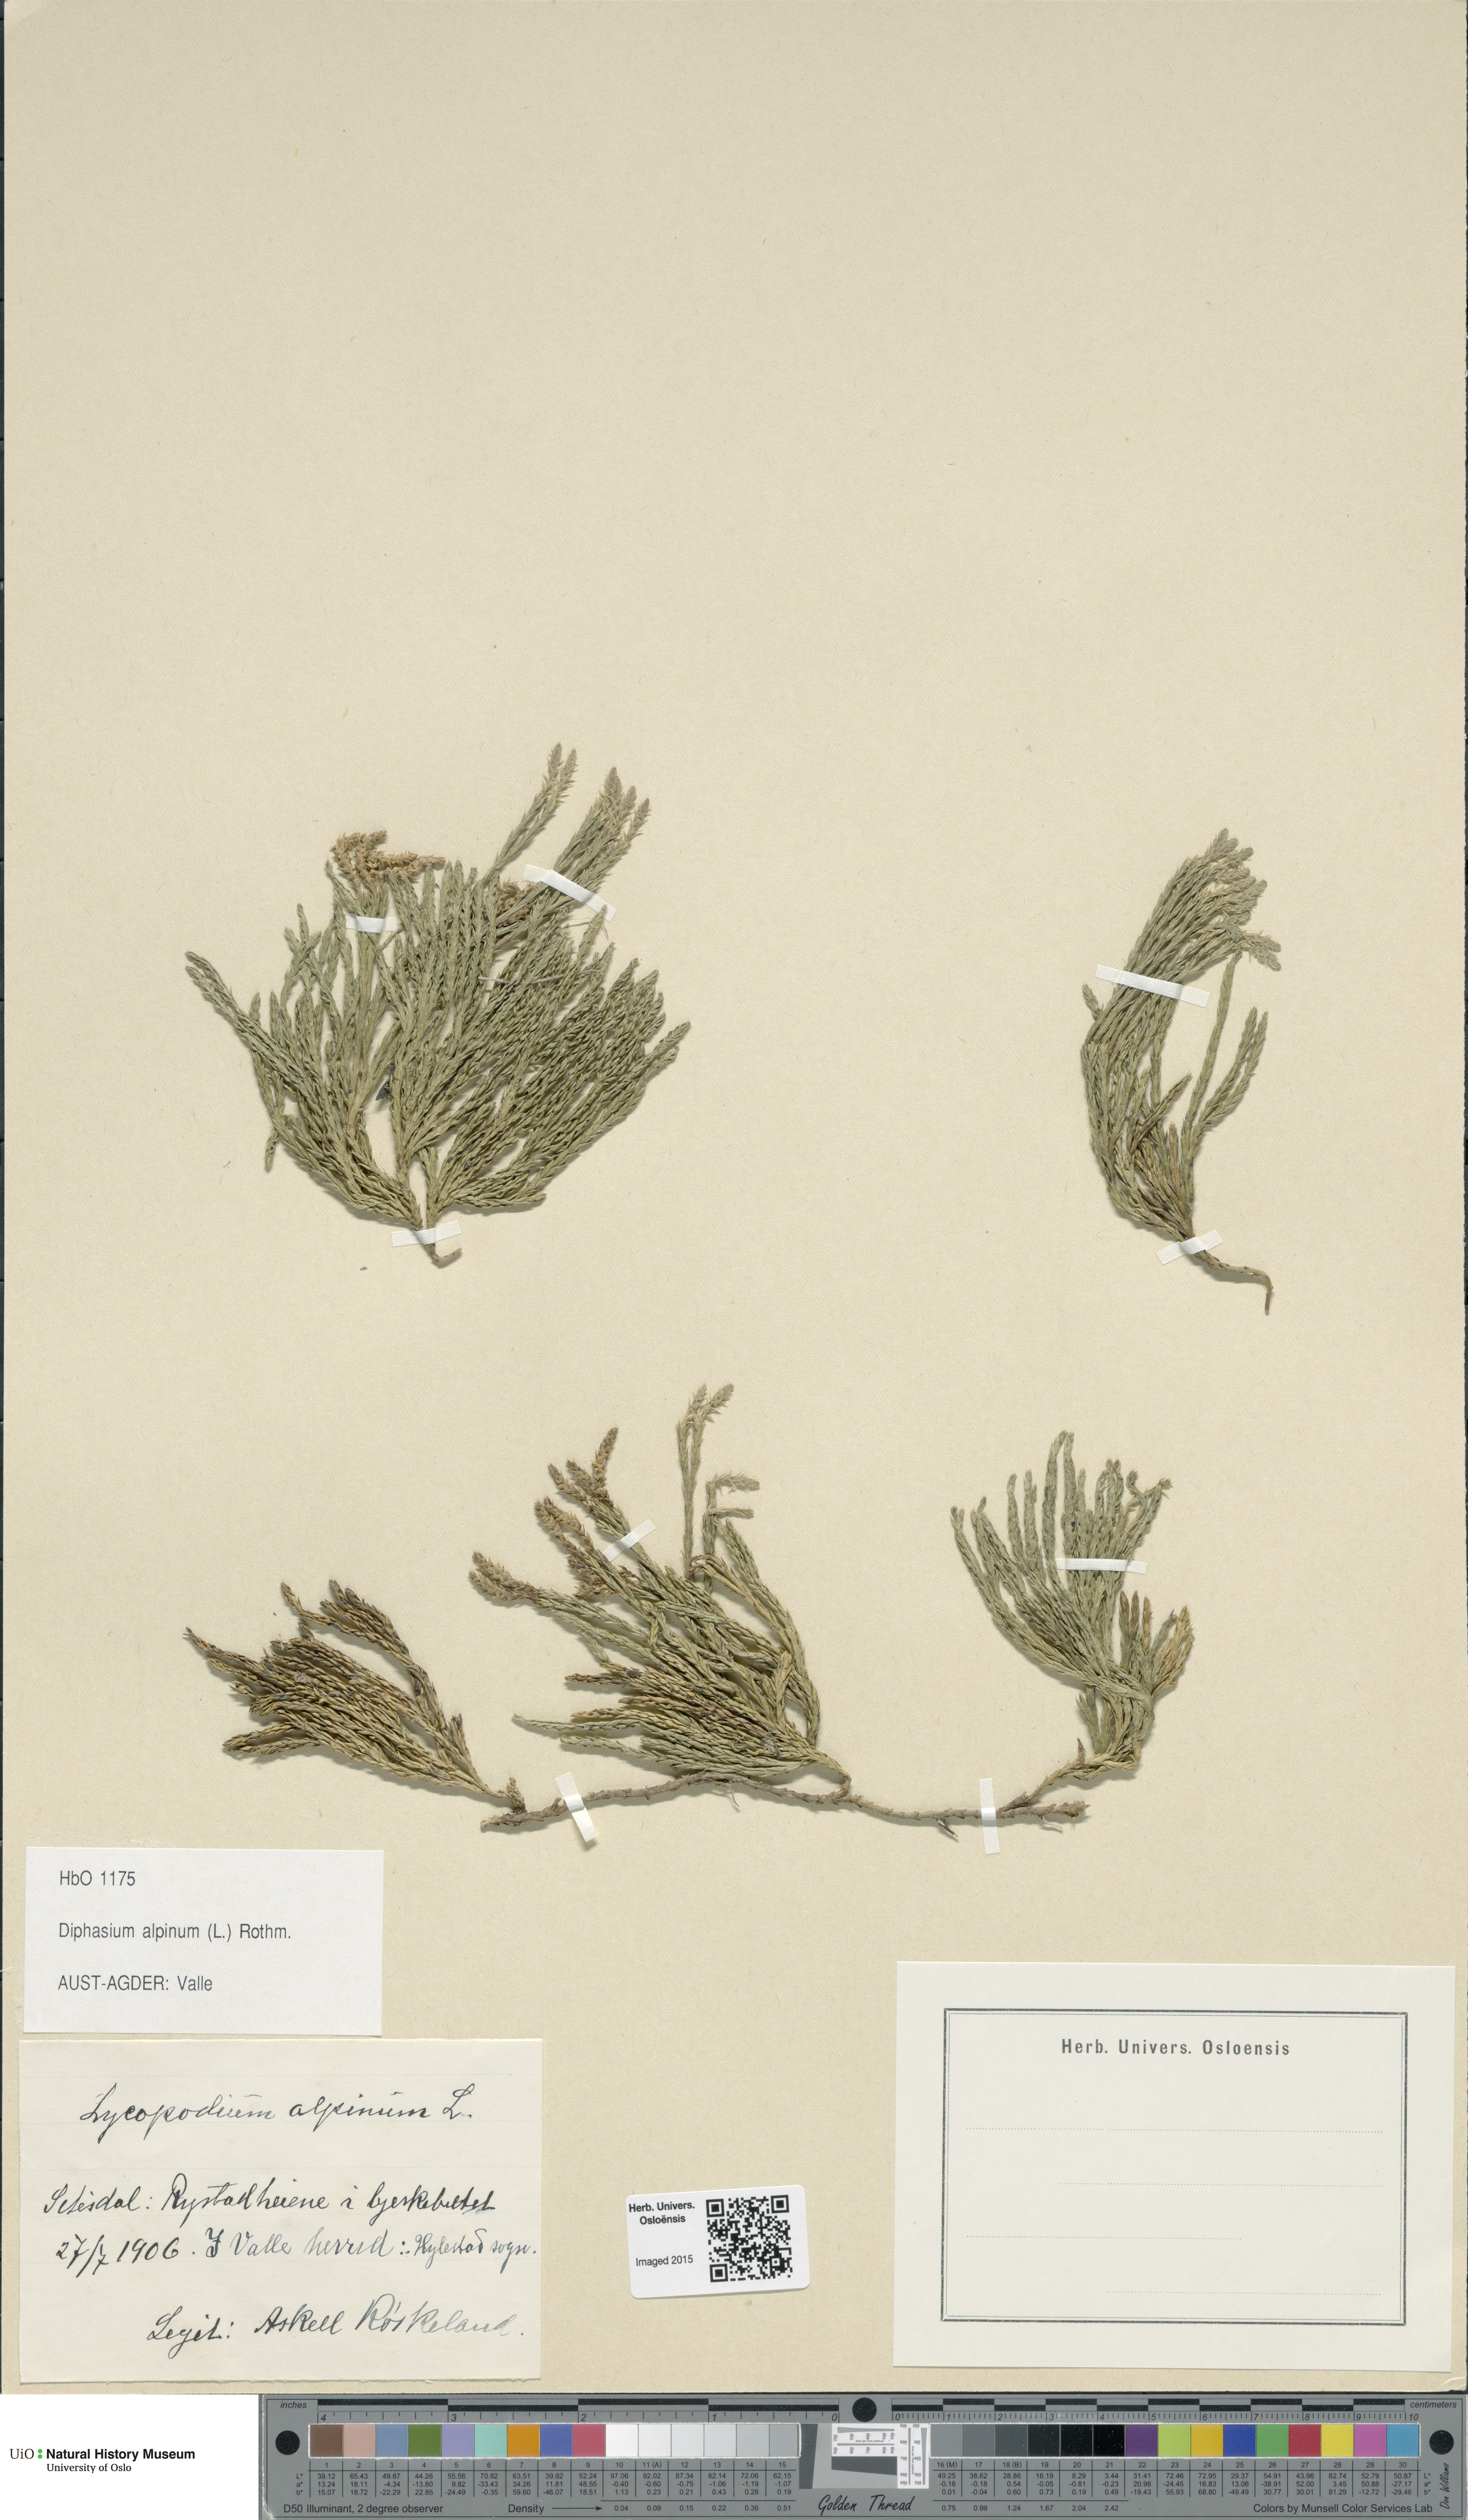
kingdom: Plantae
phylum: Tracheophyta
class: Lycopodiopsida
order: Lycopodiales
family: Lycopodiaceae
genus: Diphasiastrum
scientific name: Diphasiastrum alpinum
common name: Alpine clubmoss
